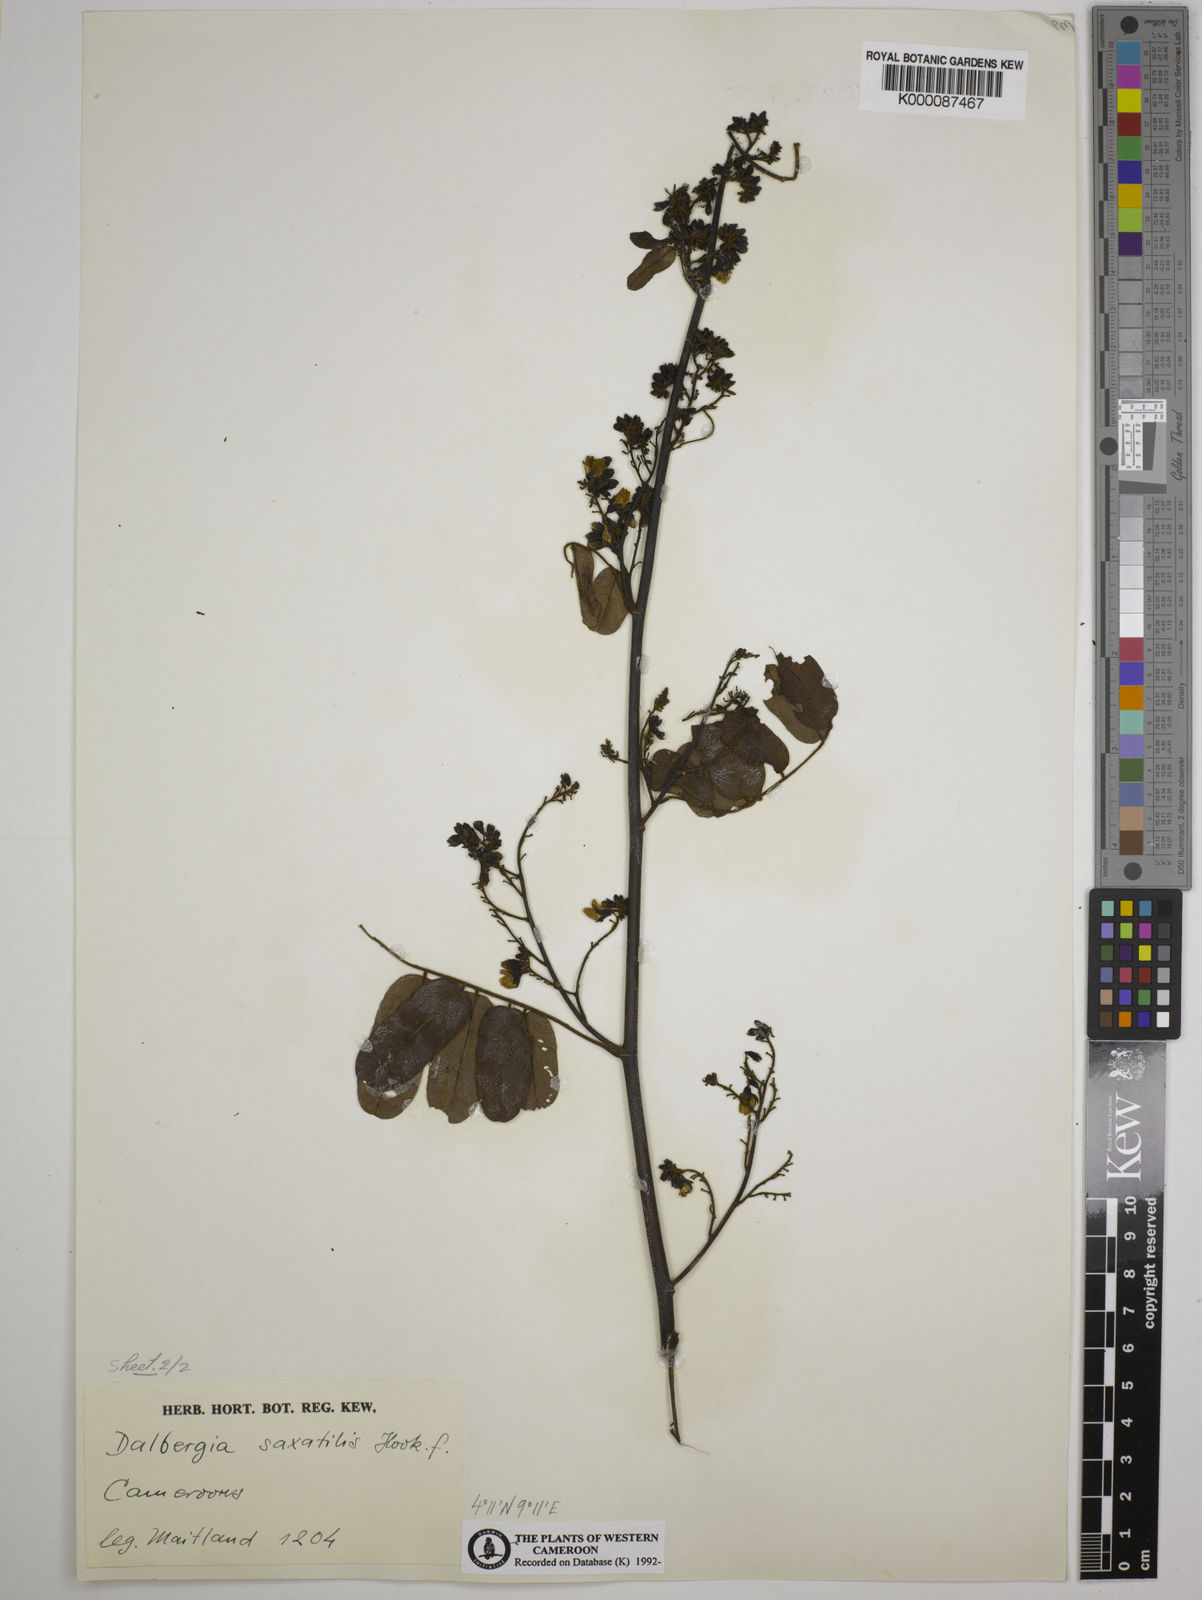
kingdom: Plantae
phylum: Tracheophyta
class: Magnoliopsida
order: Fabales
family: Fabaceae
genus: Dalbergia
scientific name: Dalbergia saxatilis
